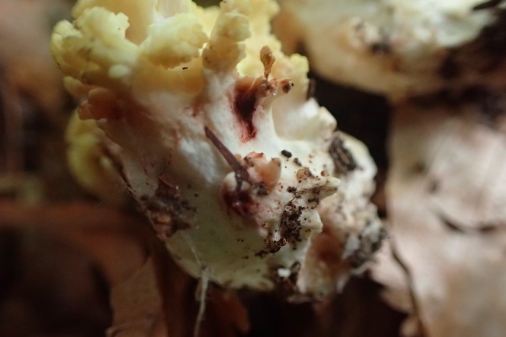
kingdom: Fungi
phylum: Basidiomycota
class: Agaricomycetes
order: Gomphales
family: Gomphaceae
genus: Ramaria
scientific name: Ramaria sanguinea
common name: blodplettet koralsvamp
